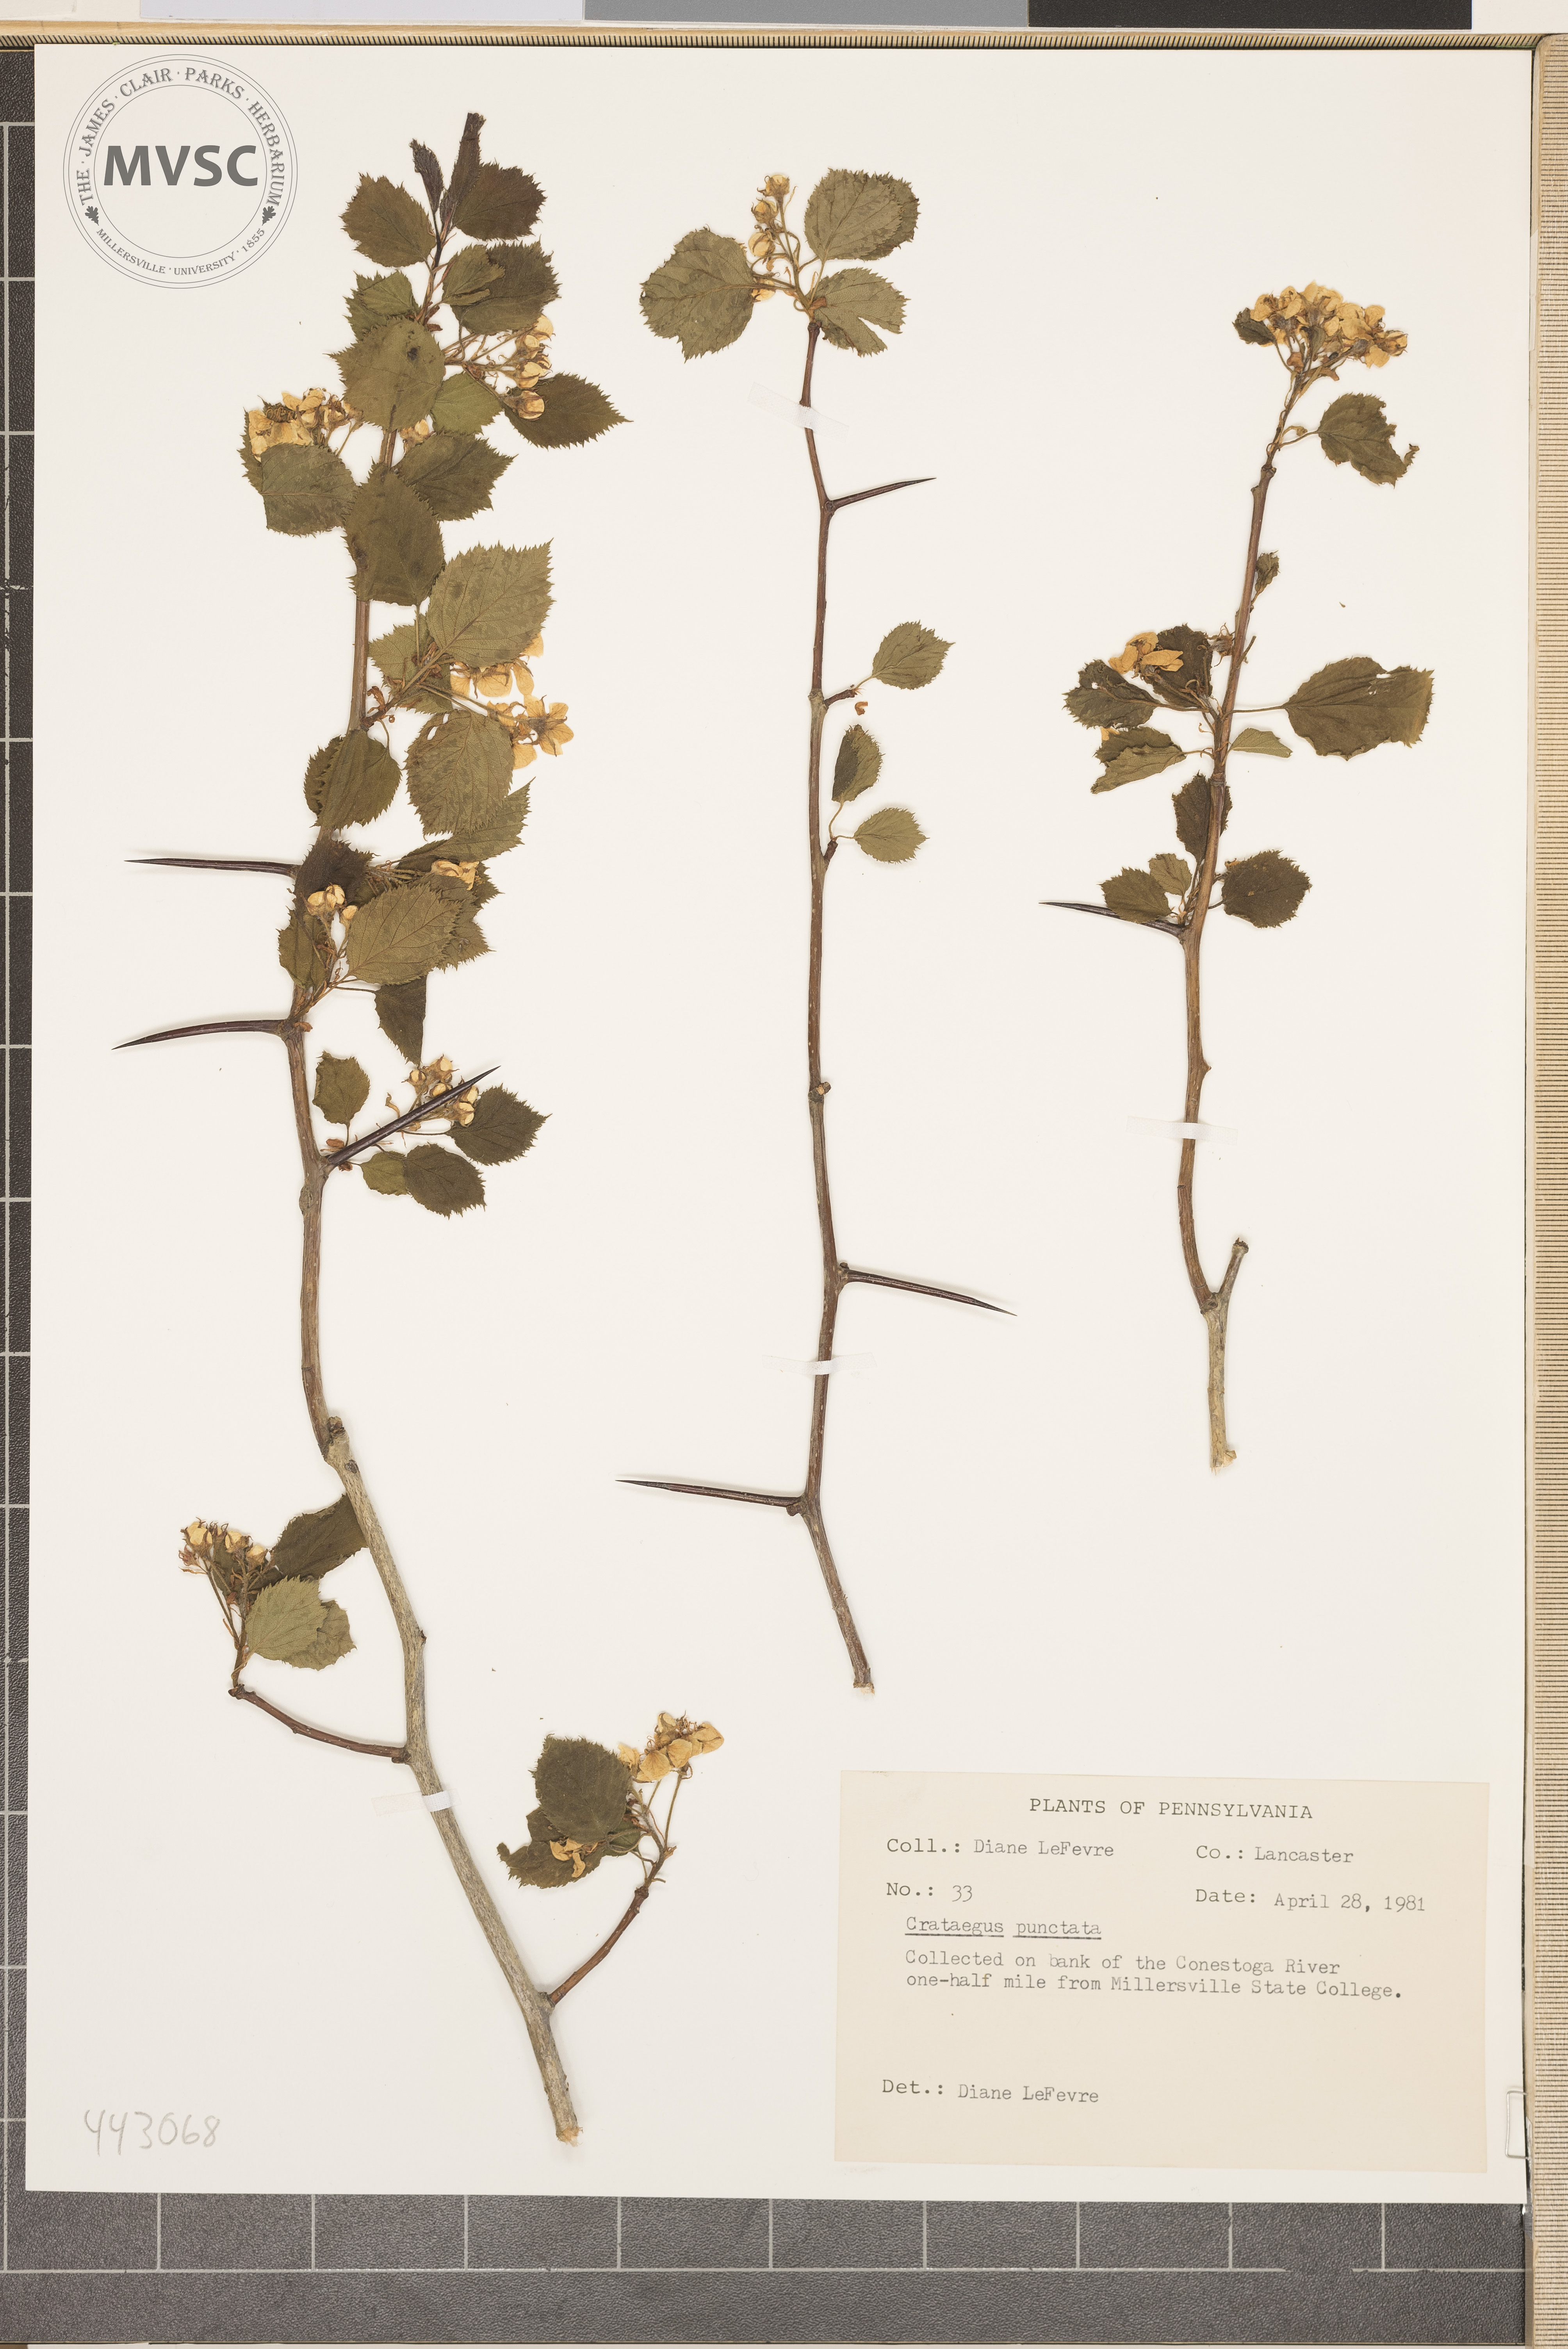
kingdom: Plantae
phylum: Tracheophyta
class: Magnoliopsida
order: Rosales
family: Rosaceae
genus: Crataegus
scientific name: Crataegus pruinosa
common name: Waxy-fruit hawthorn
